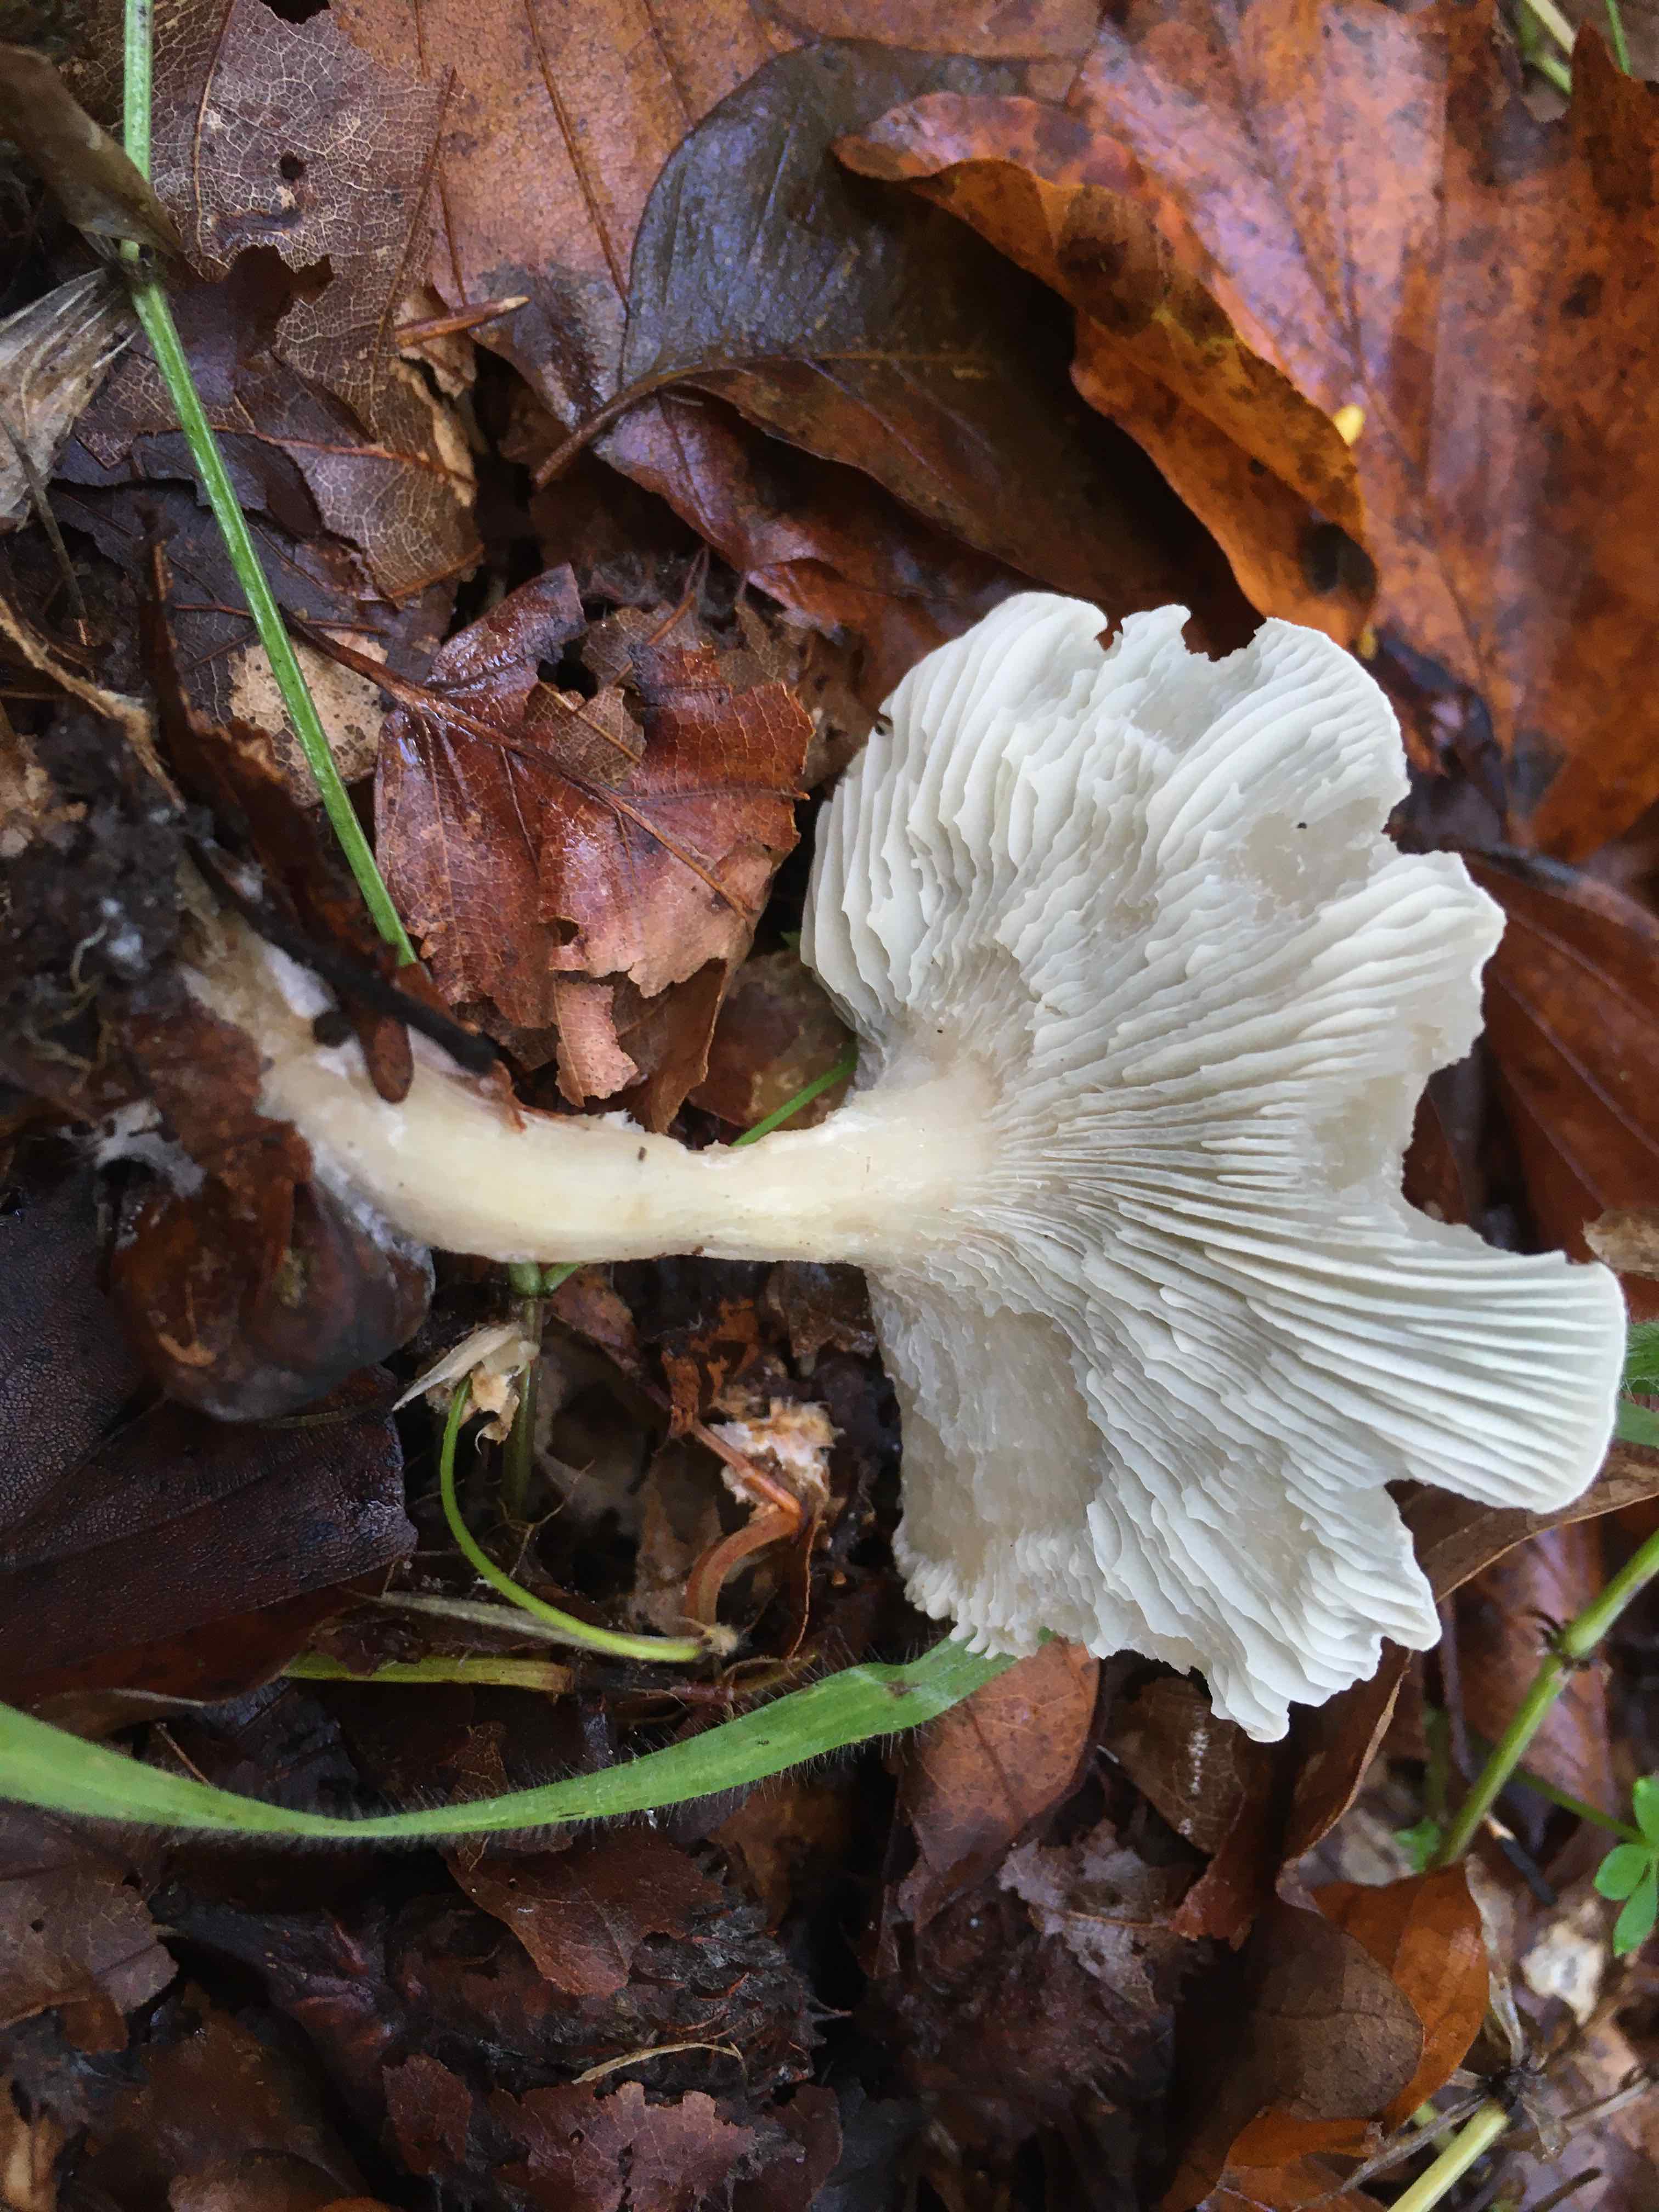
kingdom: Fungi
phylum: Basidiomycota
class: Agaricomycetes
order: Agaricales
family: Tricholomataceae
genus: Clitocybe
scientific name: Clitocybe odora
